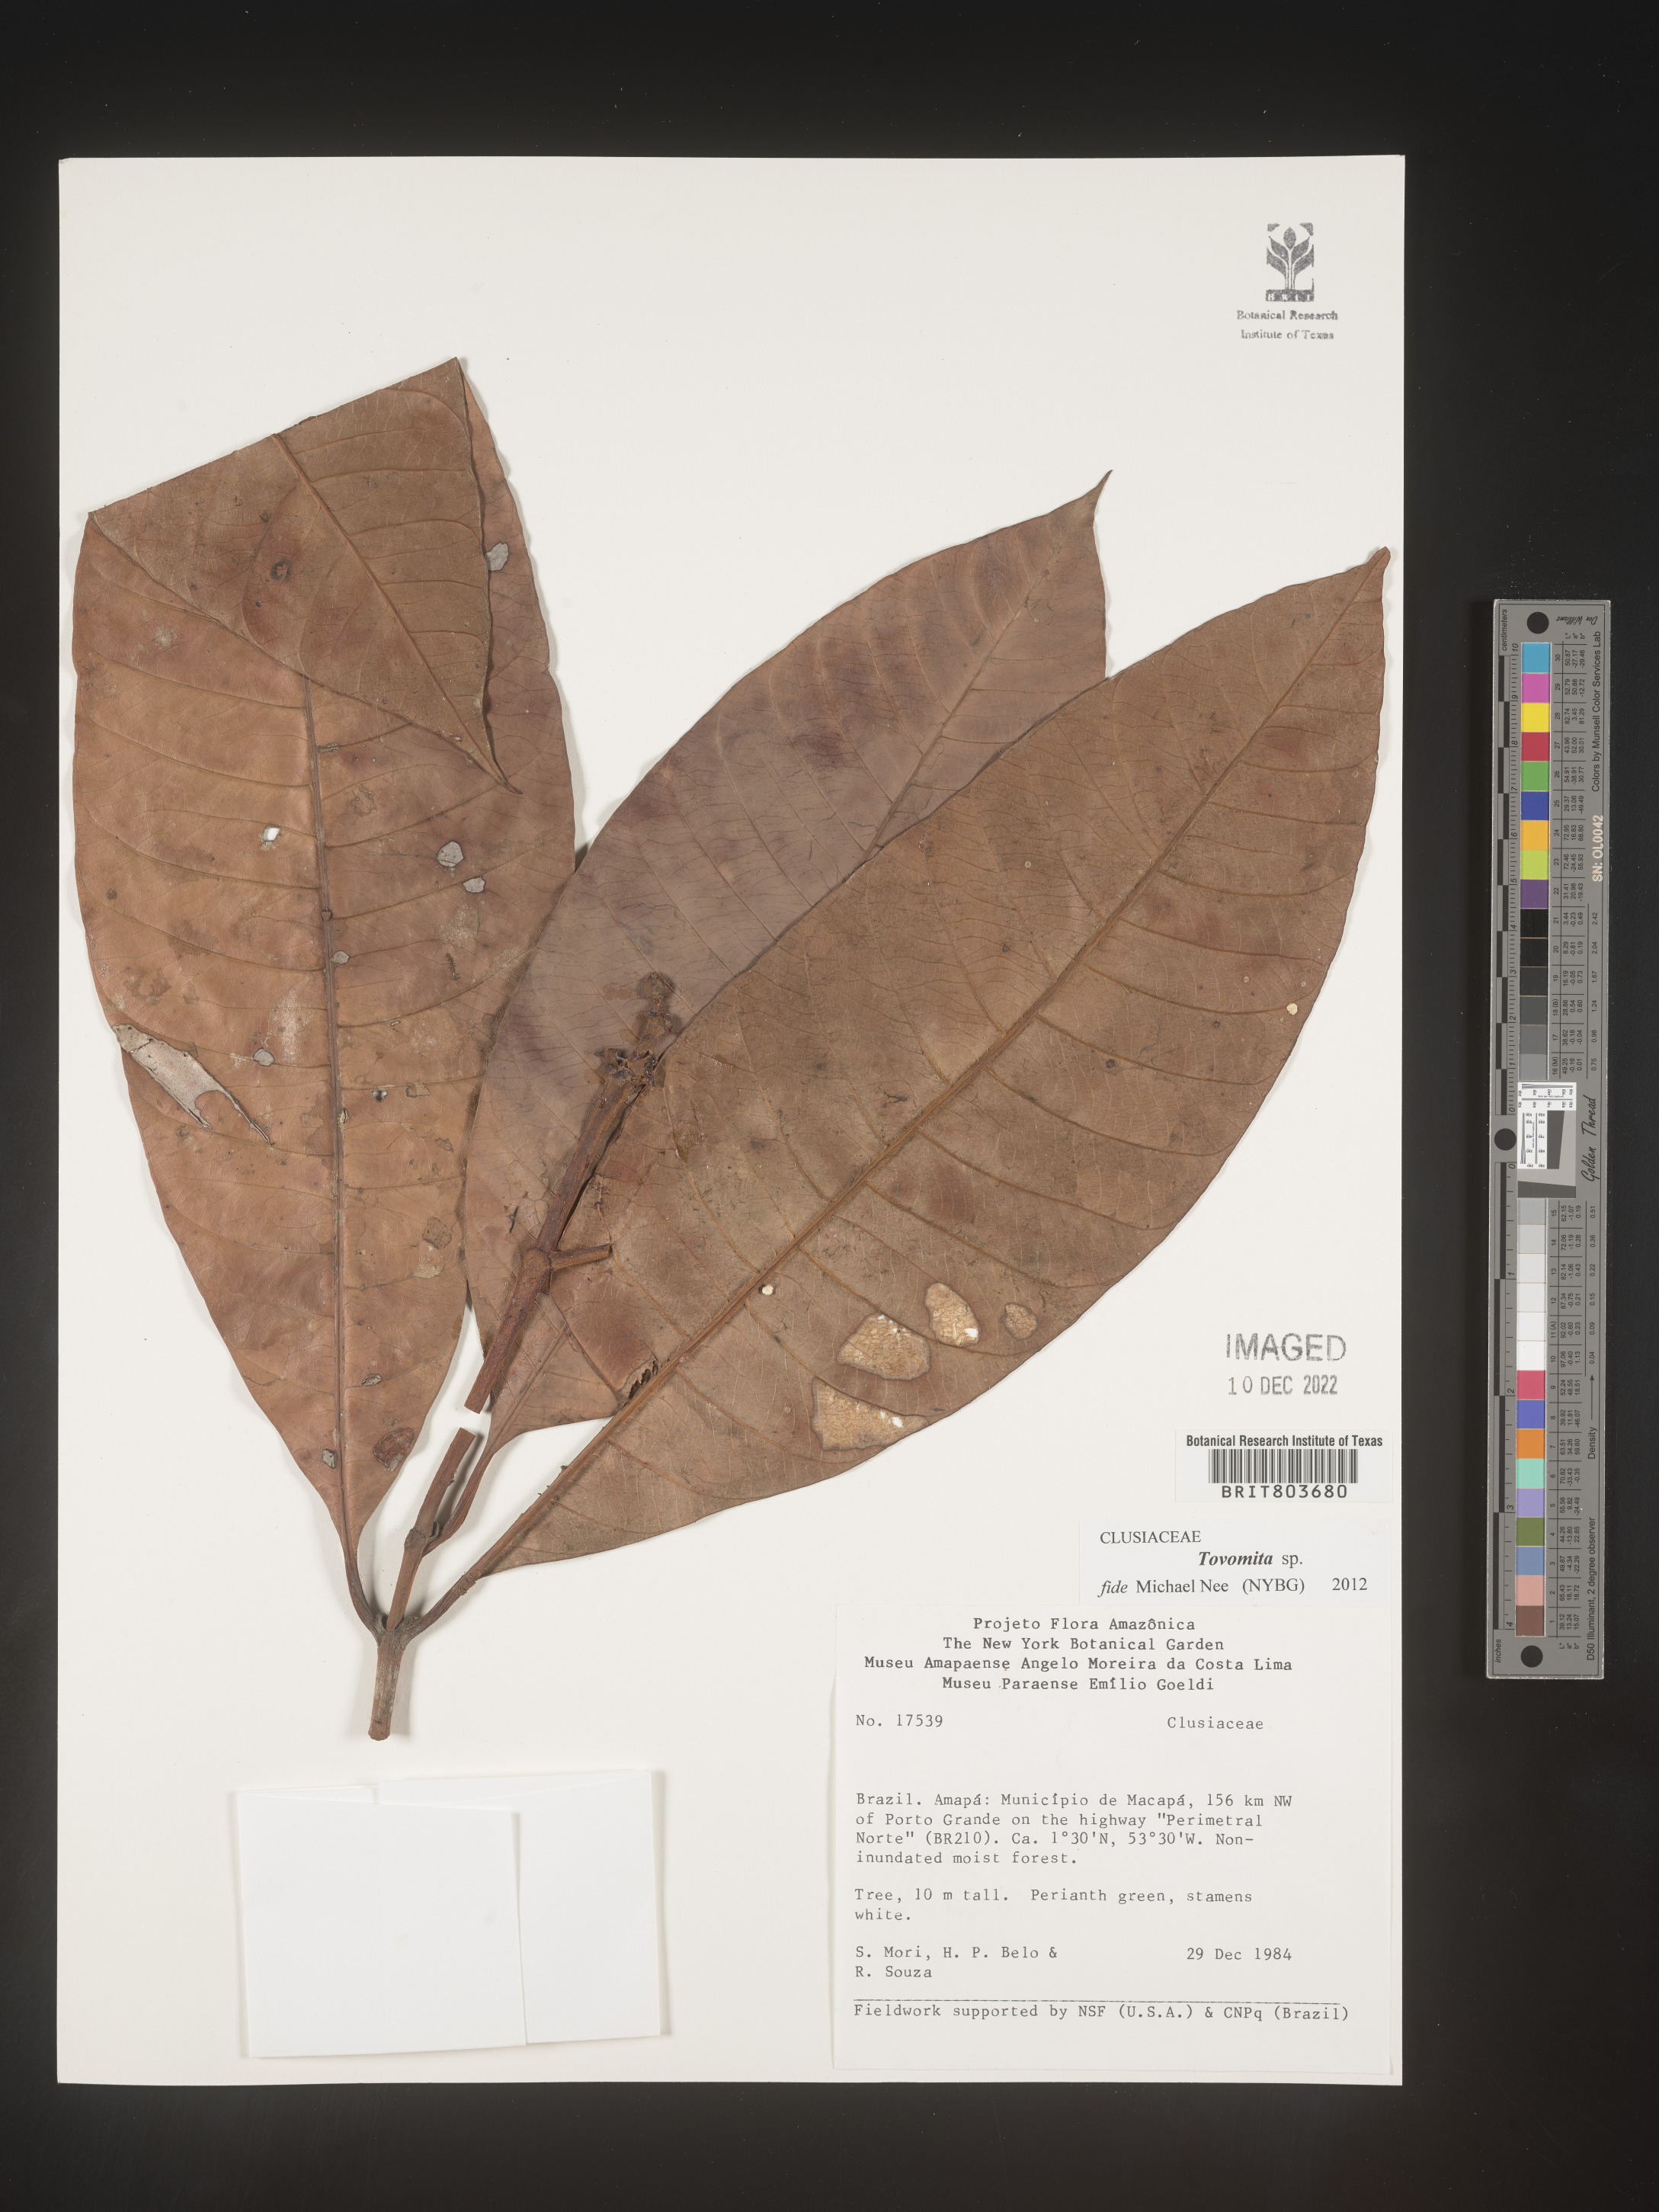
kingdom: Plantae
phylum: Tracheophyta
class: Magnoliopsida
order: Malpighiales
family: Clusiaceae
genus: Tovomita
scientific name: Tovomita
